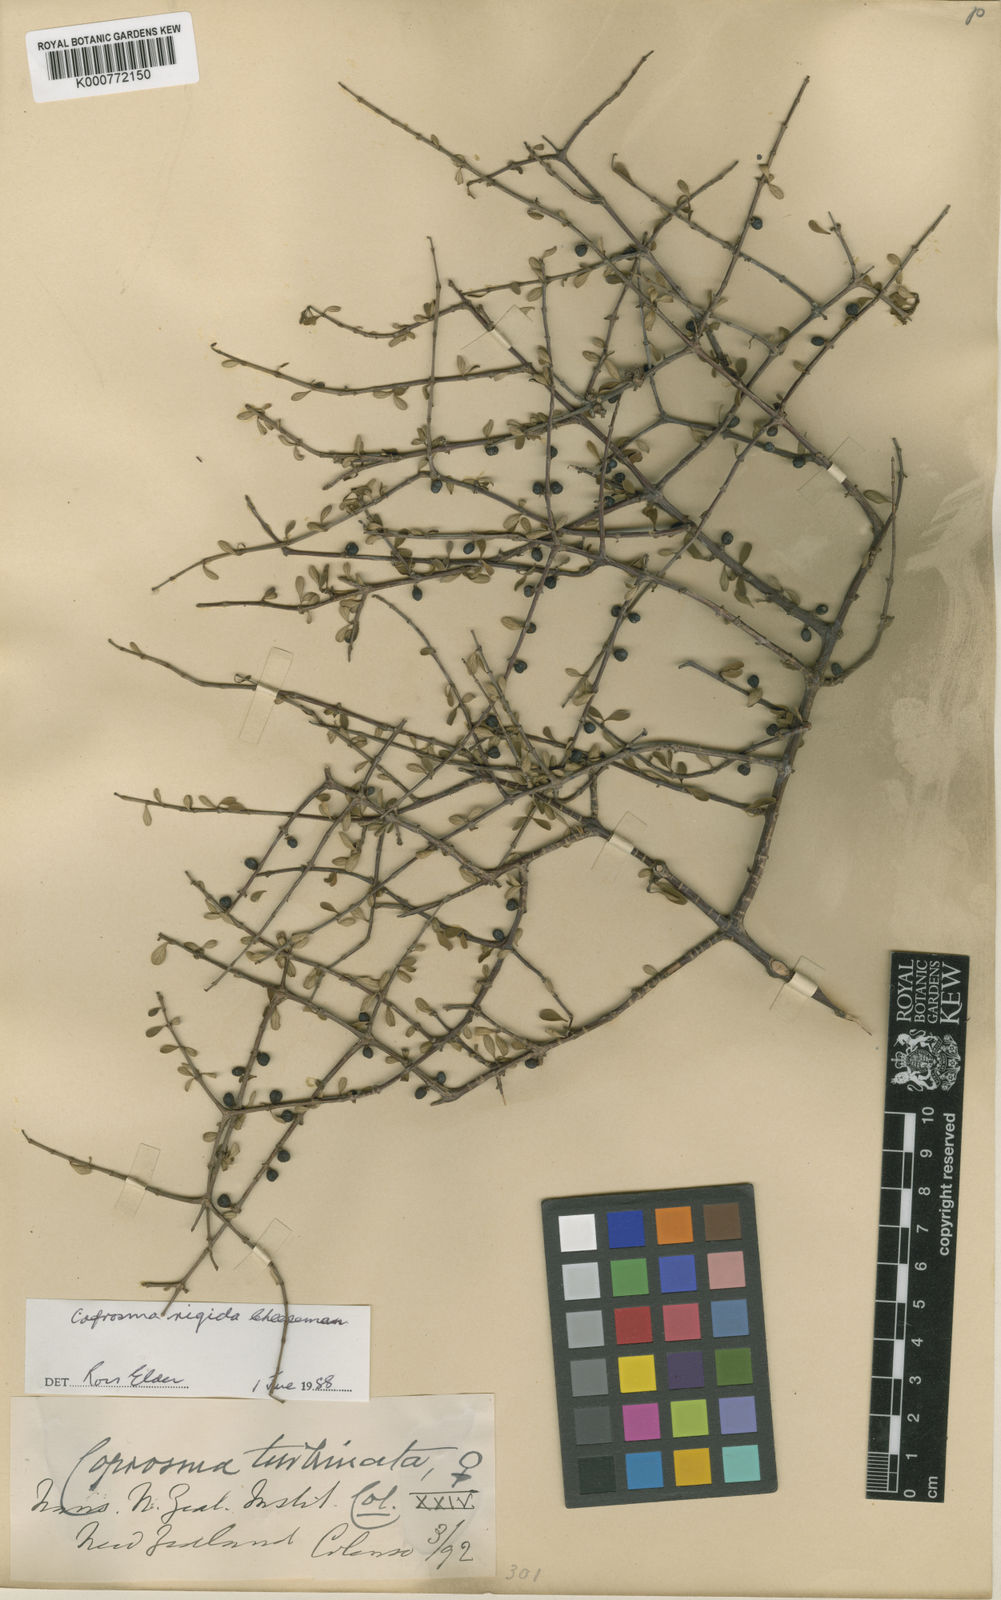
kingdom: Plantae
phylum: Tracheophyta
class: Magnoliopsida
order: Gentianales
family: Rubiaceae
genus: Coprosma
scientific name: Coprosma rigida
